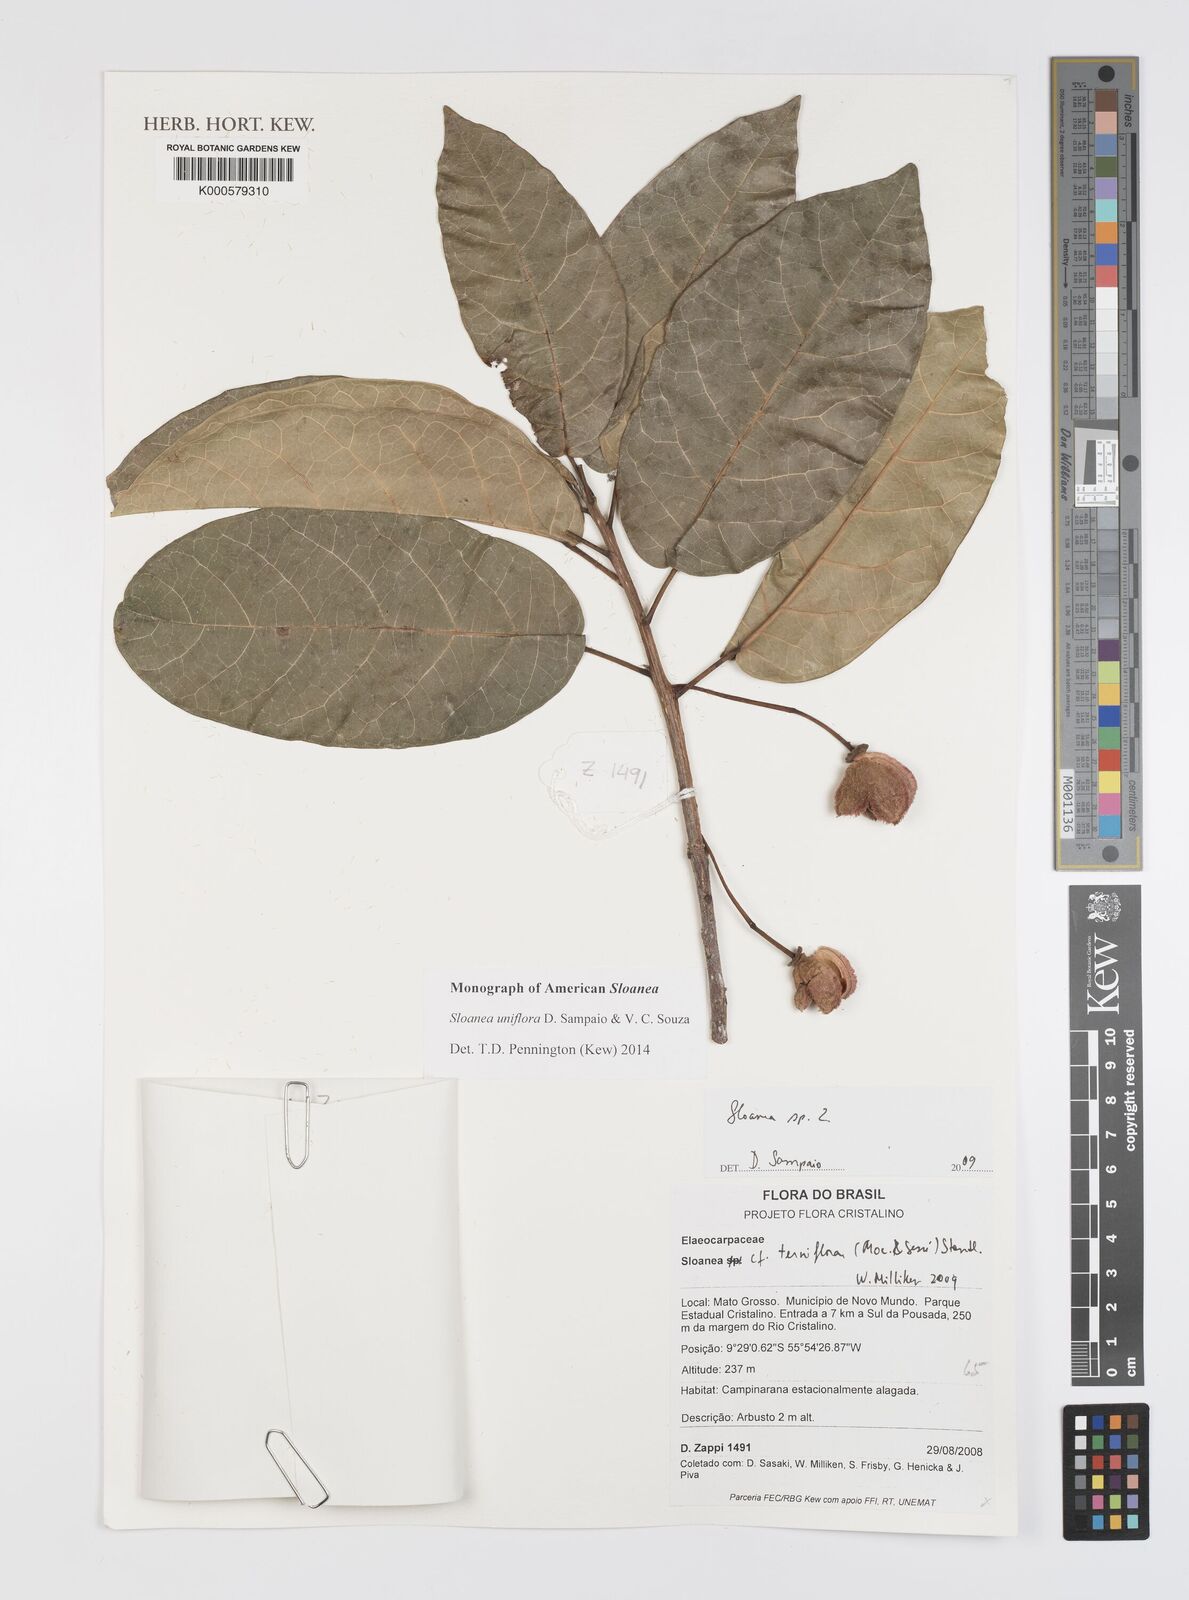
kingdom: Plantae
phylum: Tracheophyta
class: Magnoliopsida
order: Oxalidales
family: Elaeocarpaceae
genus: Sloanea
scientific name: Sloanea uniflora
